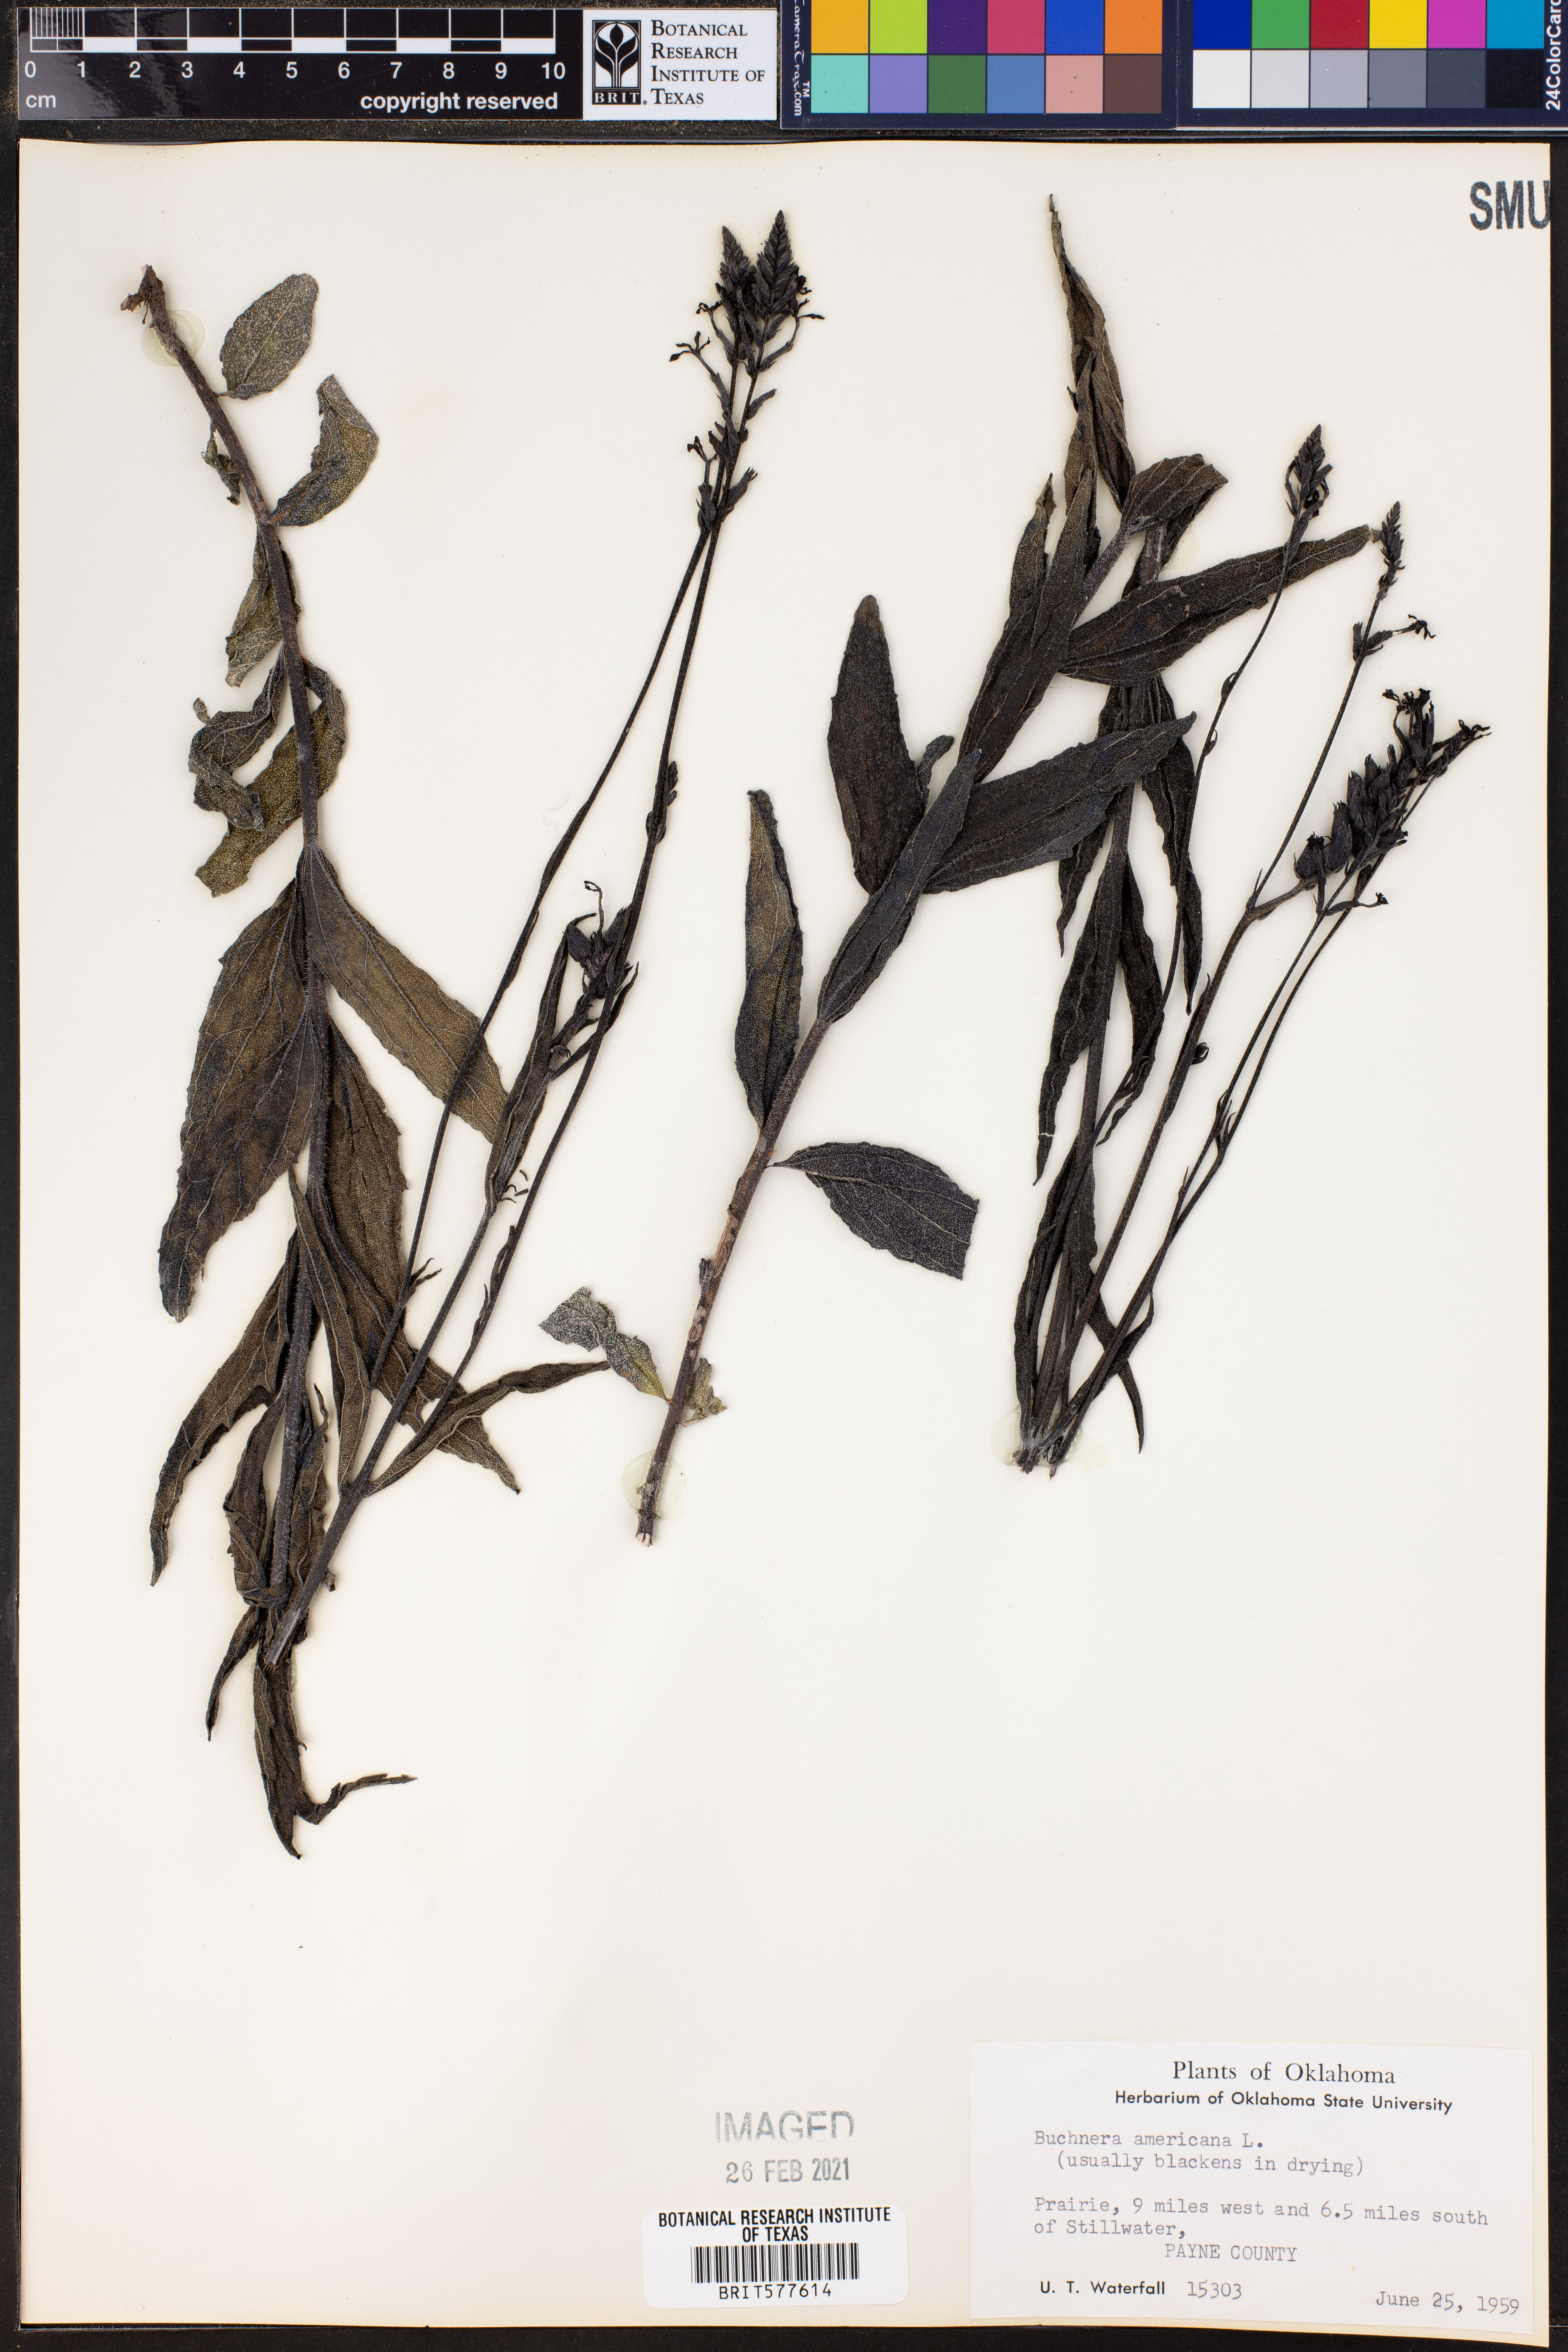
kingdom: Plantae
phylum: Tracheophyta
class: Magnoliopsida
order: Lamiales
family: Orobanchaceae
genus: Buchnera
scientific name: Buchnera americana
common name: American bluehearts
